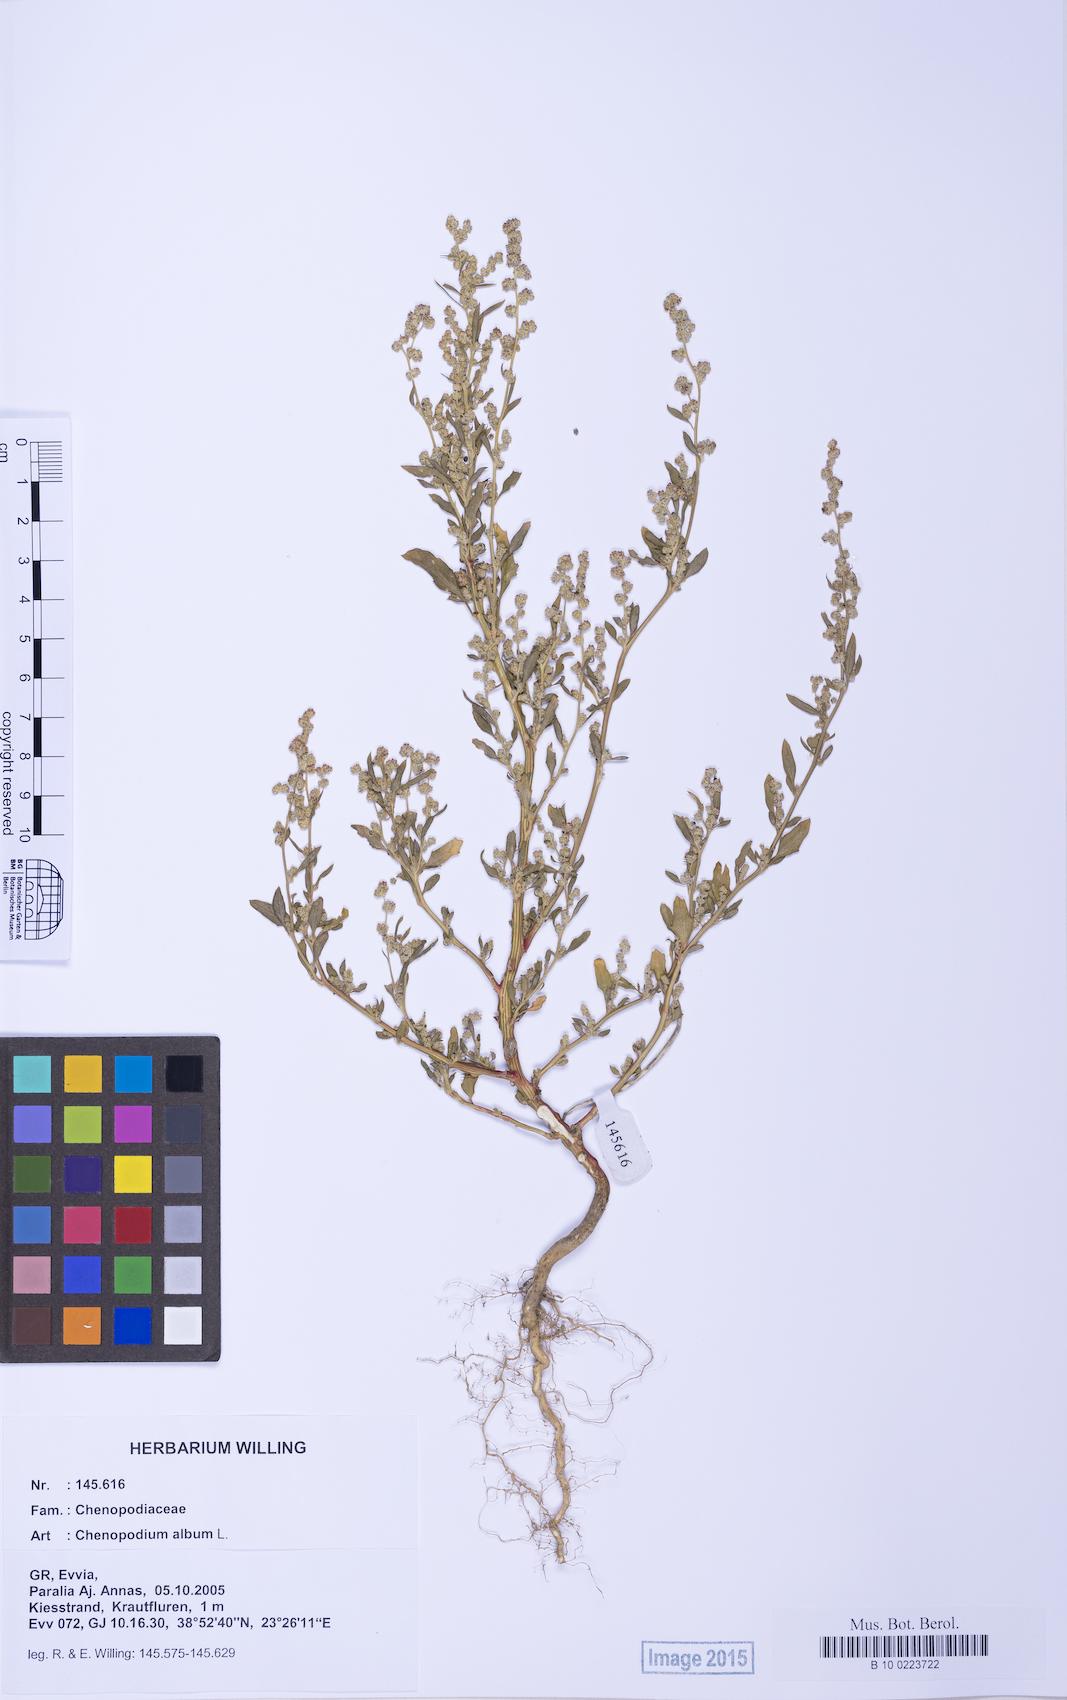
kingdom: Plantae
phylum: Tracheophyta
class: Magnoliopsida
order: Caryophyllales
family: Amaranthaceae
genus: Chenopodium
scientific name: Chenopodium album
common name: Fat-hen
